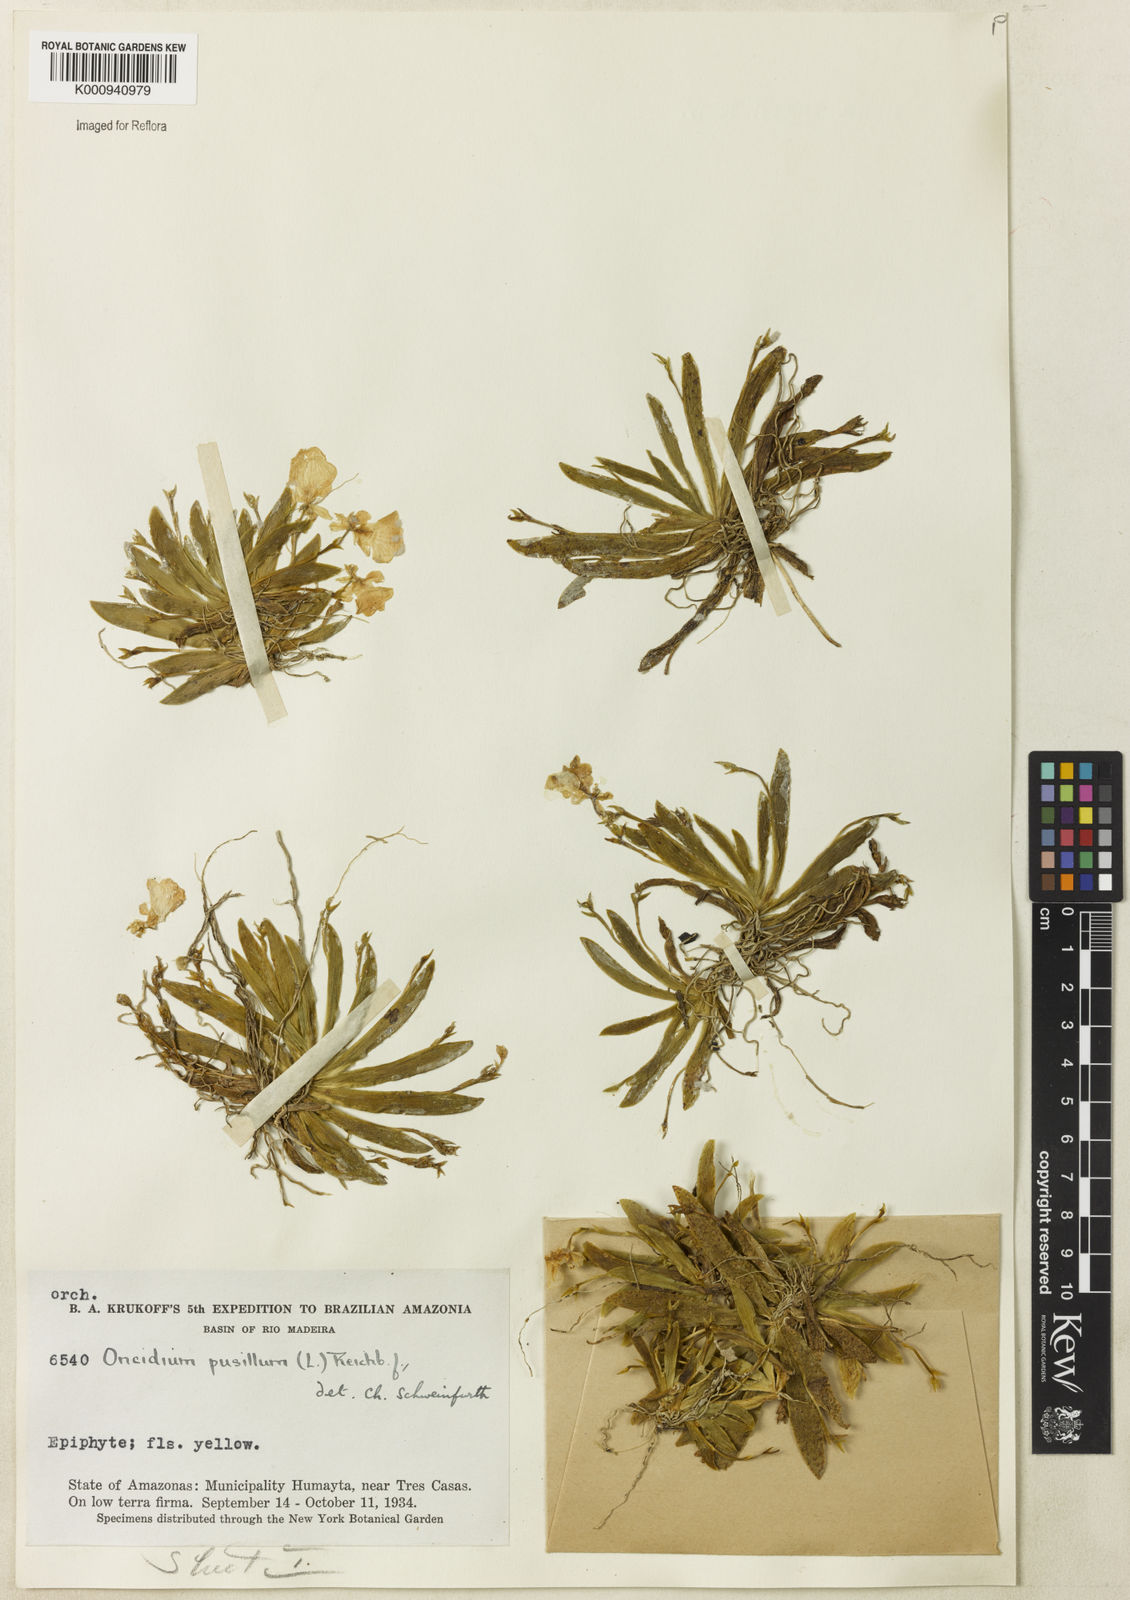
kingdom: Plantae
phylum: Tracheophyta
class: Liliopsida
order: Asparagales
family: Orchidaceae
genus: Erycina
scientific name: Erycina pusilla
